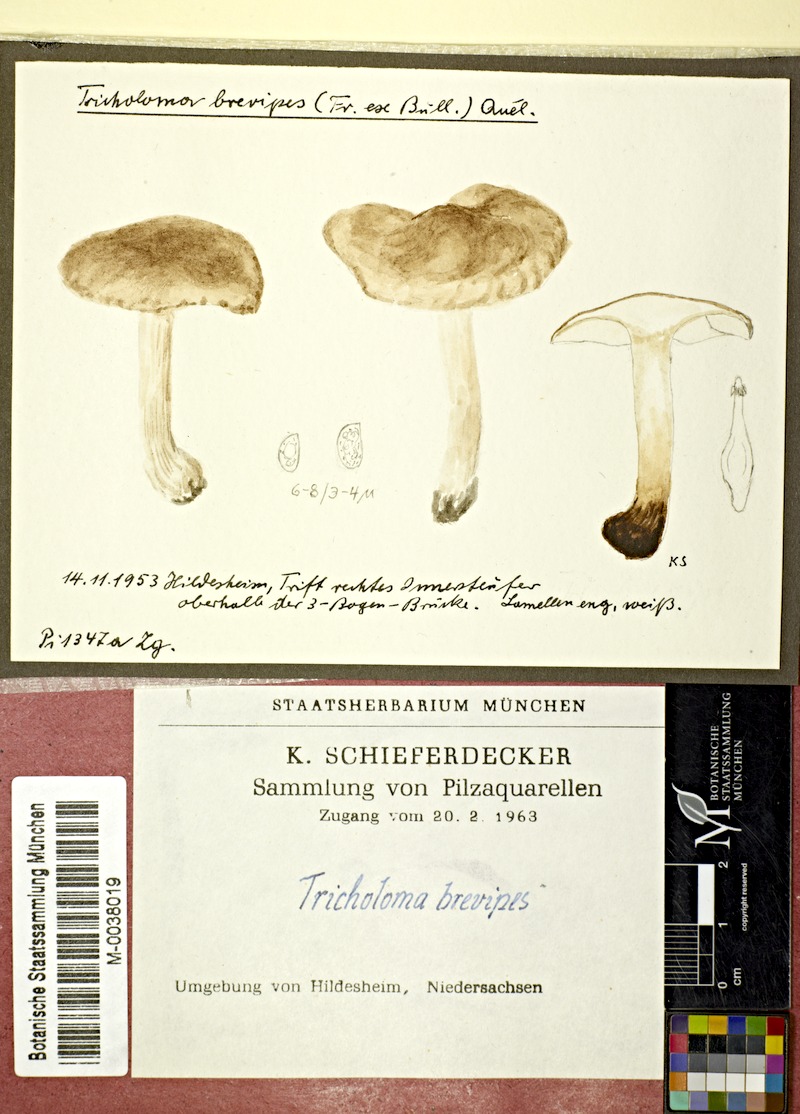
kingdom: Fungi
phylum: Basidiomycota
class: Agaricomycetes
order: Agaricales
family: Tricholomataceae
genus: Melanoleuca
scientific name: Melanoleuca brevipes
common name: Stunted cavalier
